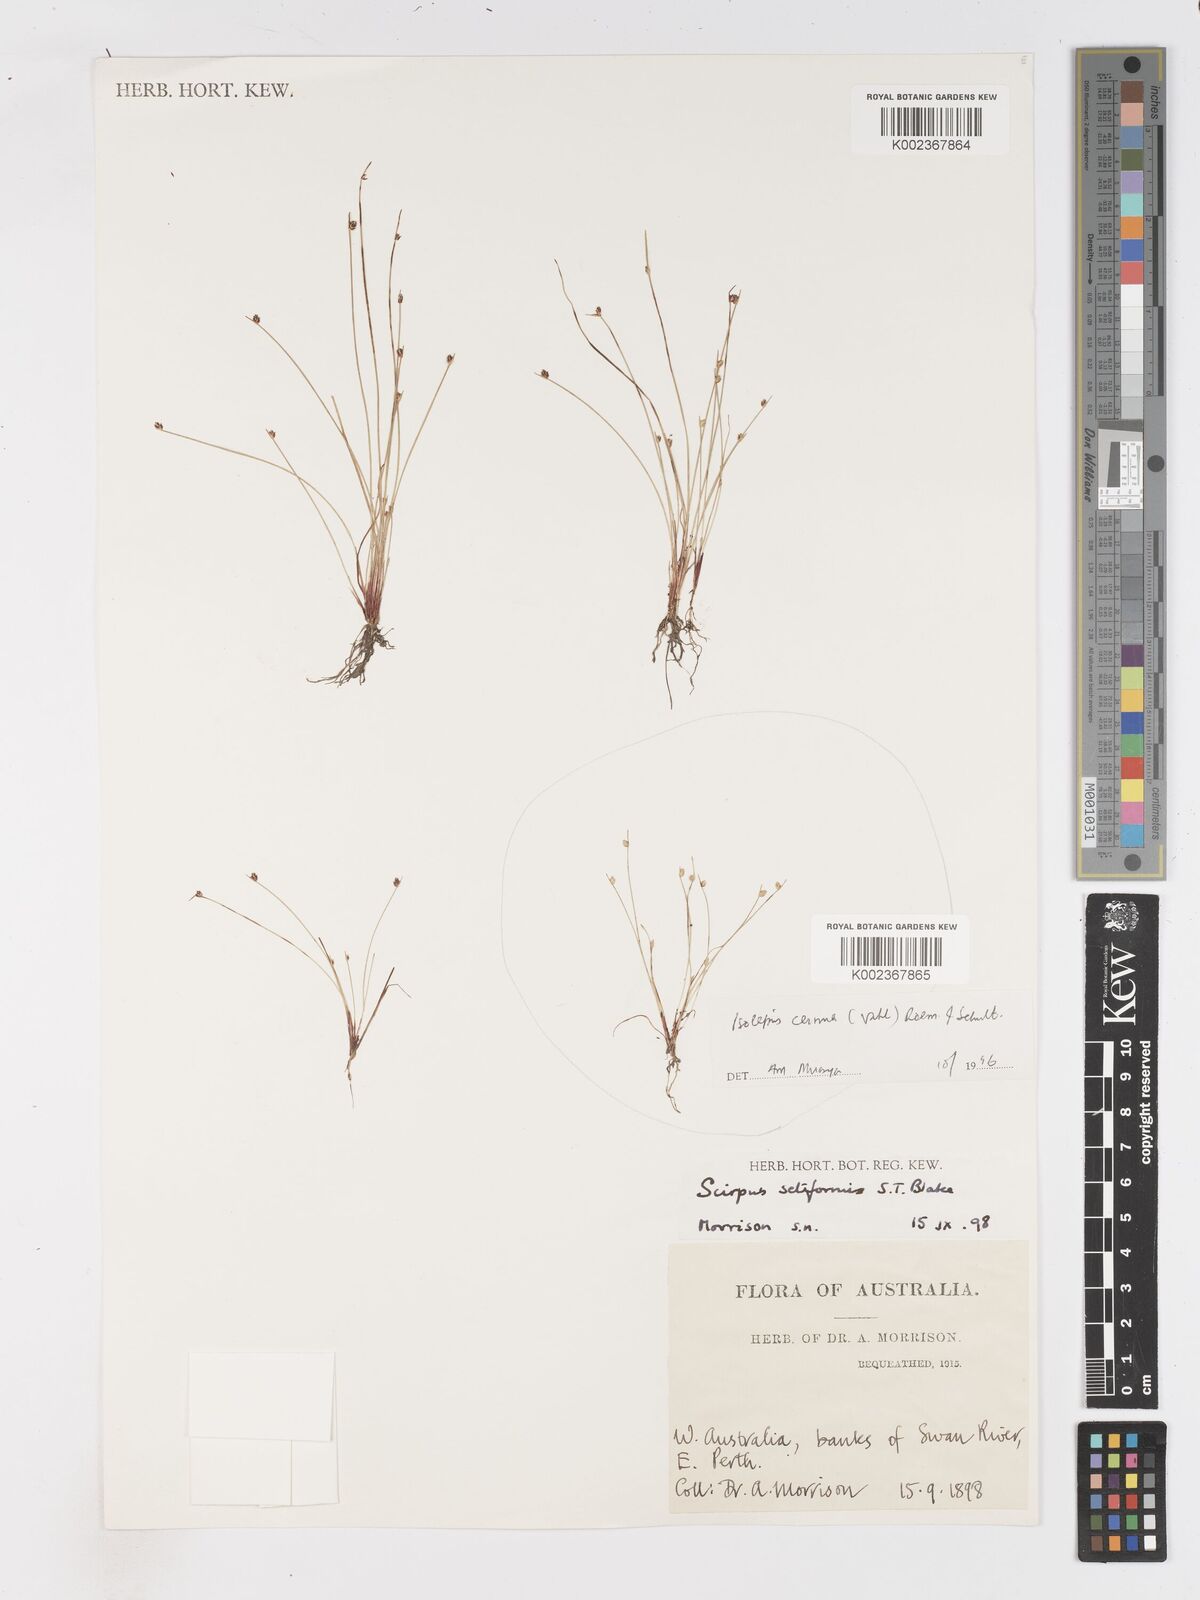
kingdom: Plantae
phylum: Tracheophyta
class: Liliopsida
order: Poales
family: Cyperaceae
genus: Isolepis
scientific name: Isolepis cernua
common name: Slender club-rush
